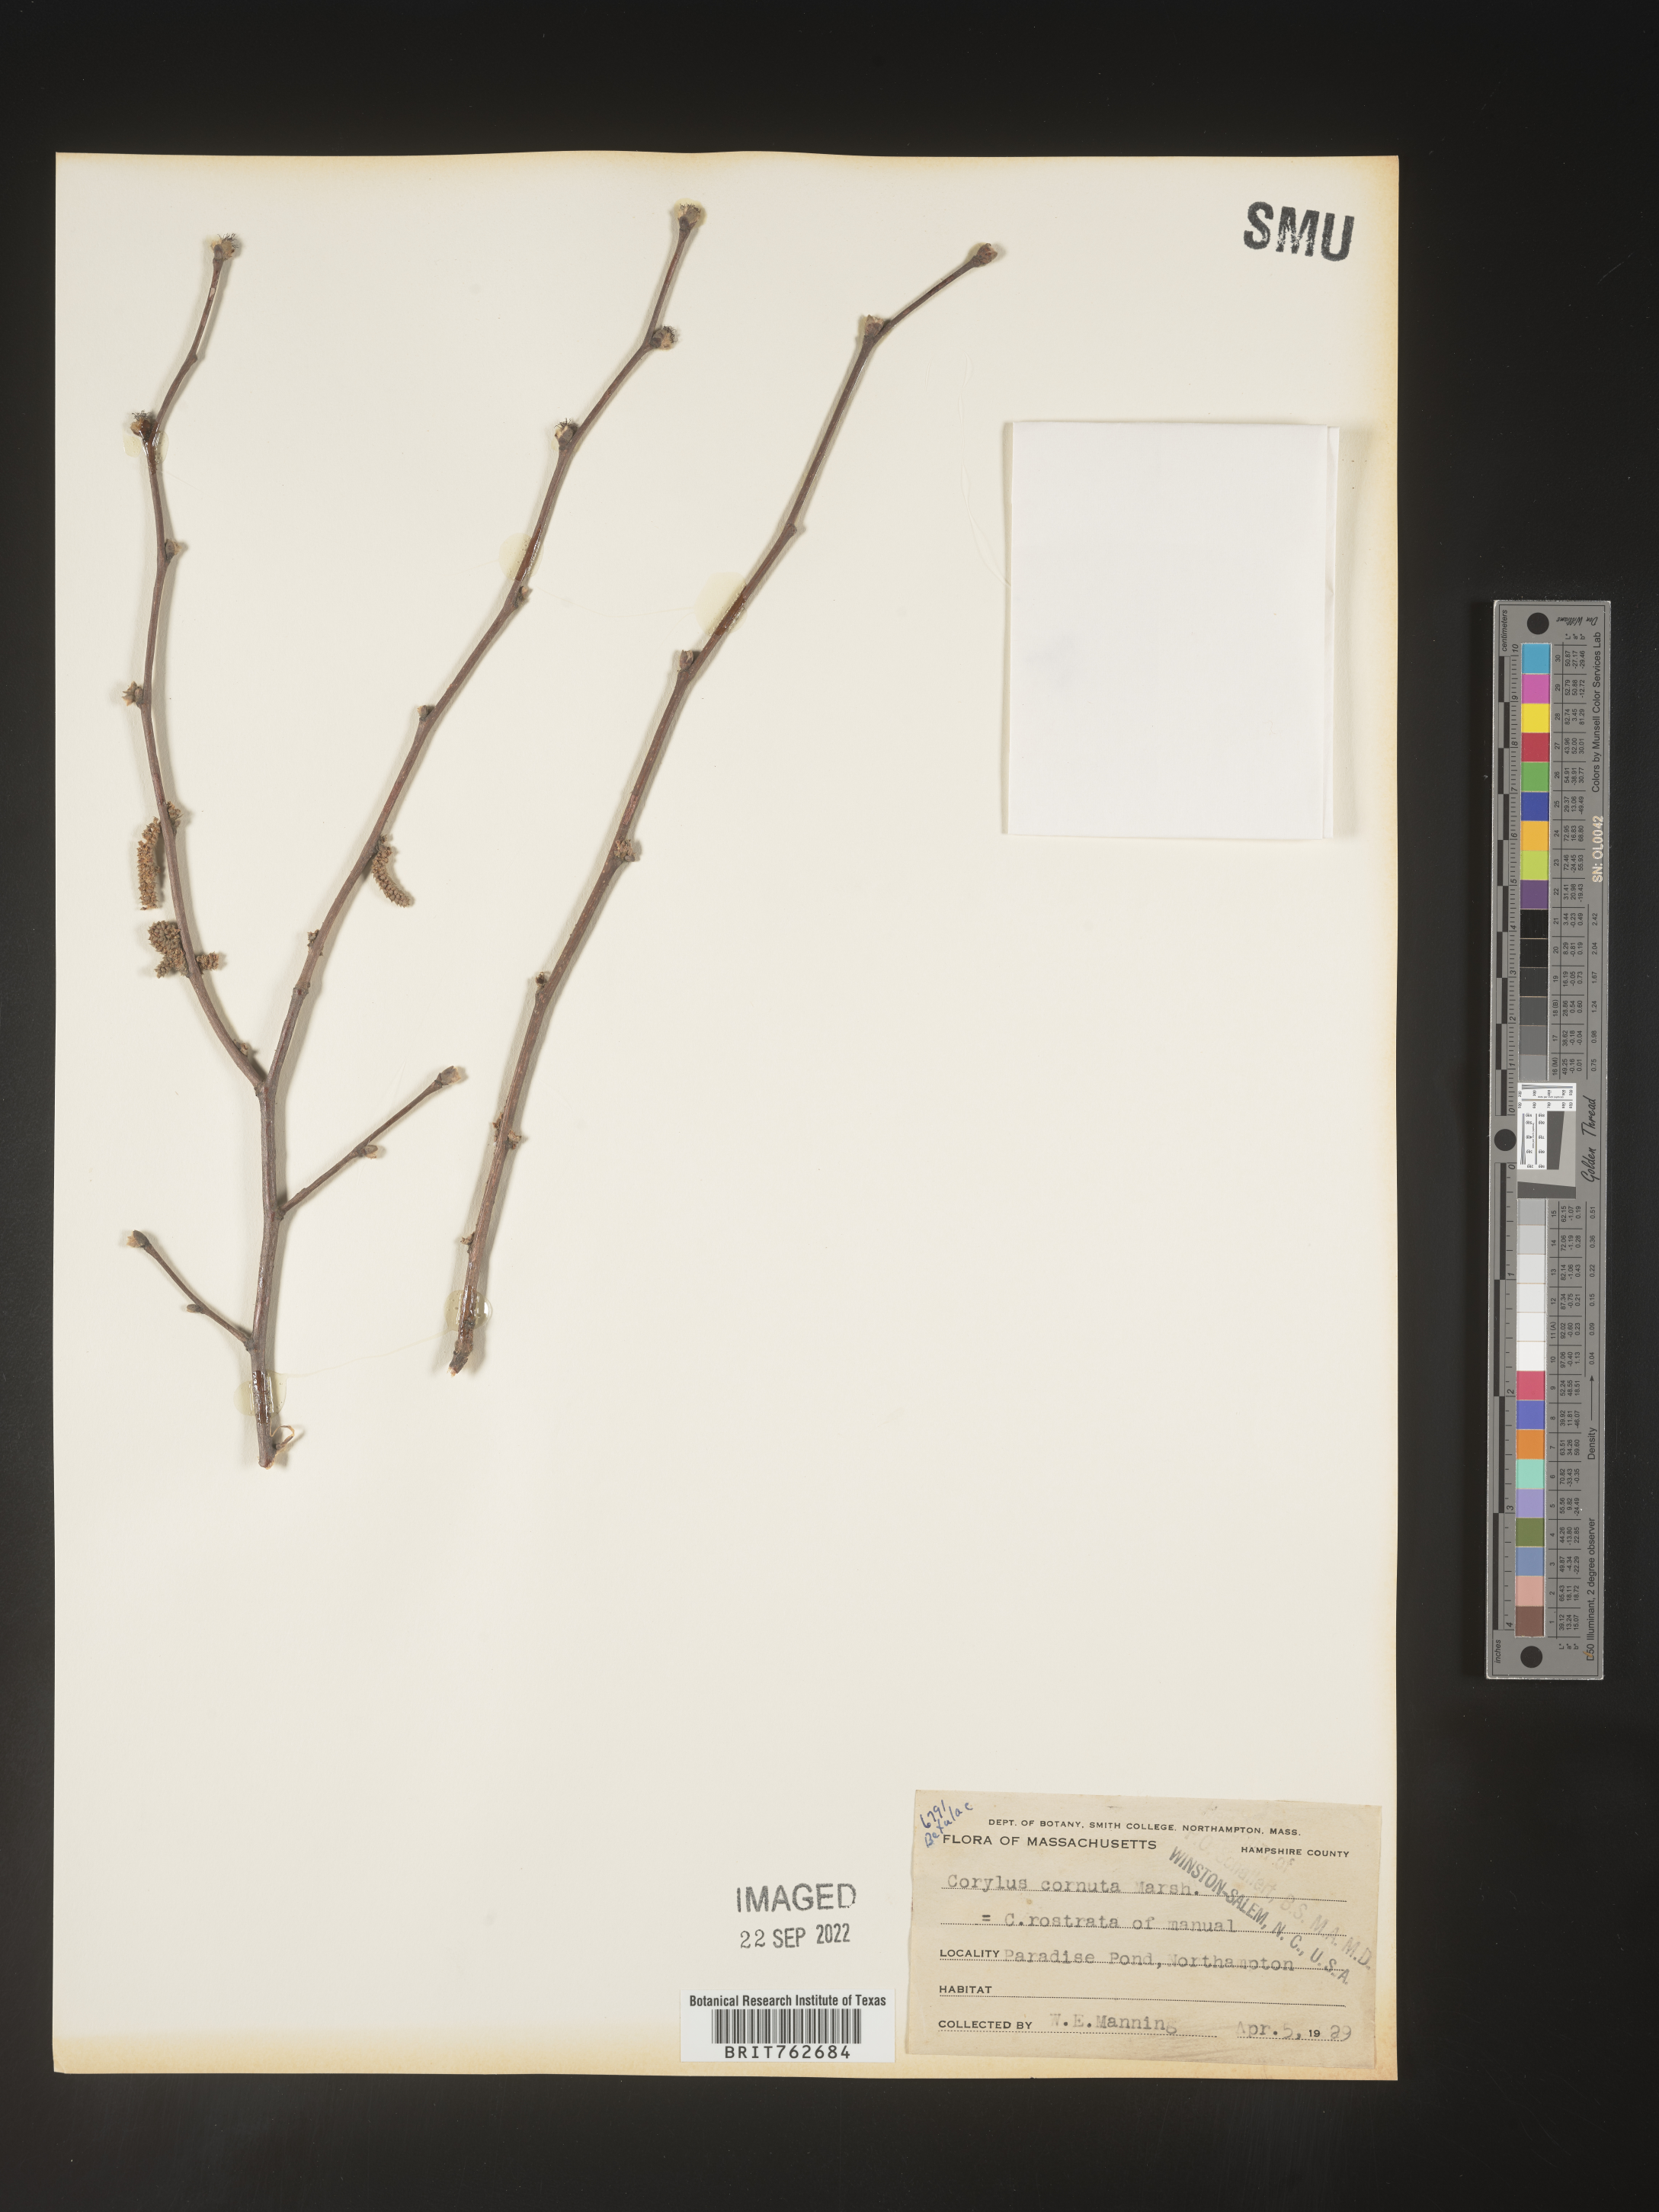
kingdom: Plantae
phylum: Tracheophyta
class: Magnoliopsida
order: Fagales
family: Betulaceae
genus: Corylus
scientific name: Corylus cornuta
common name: Beaked hazel
